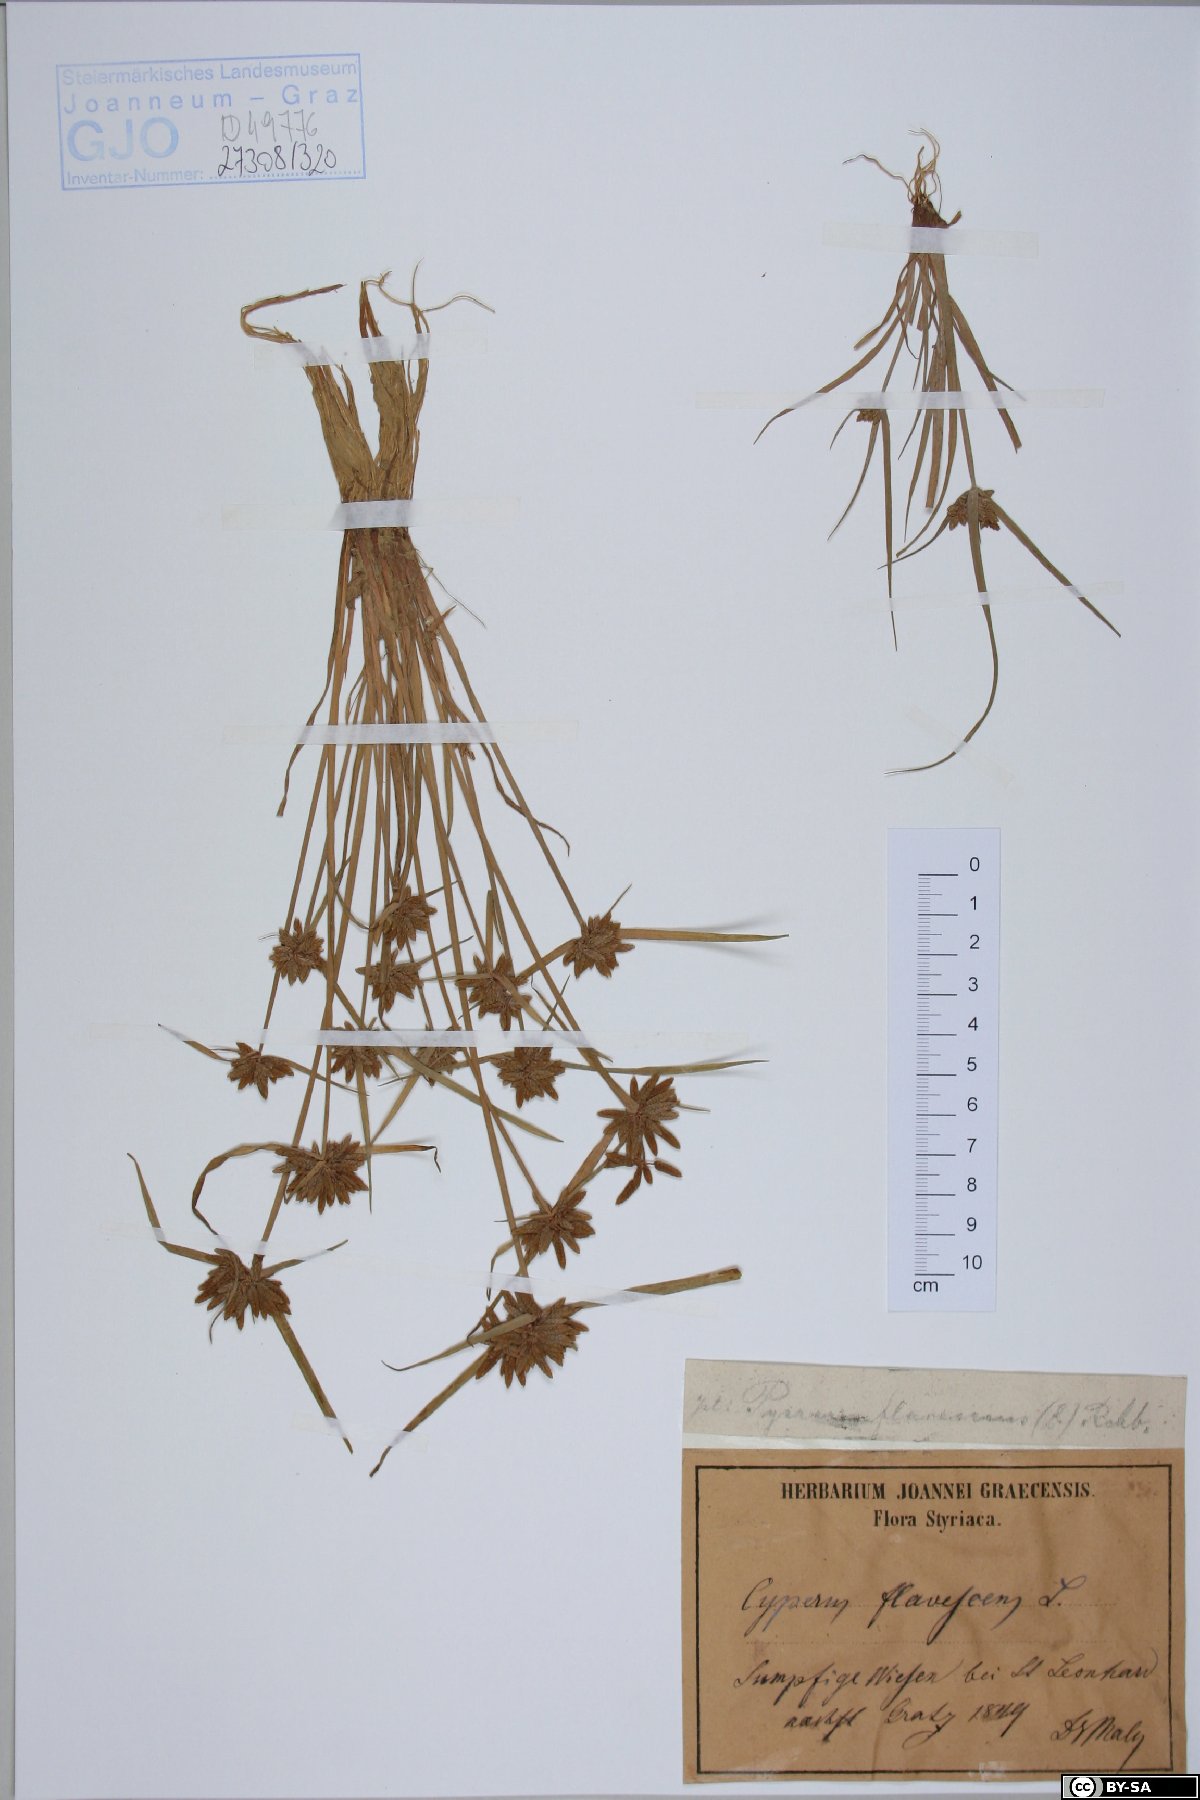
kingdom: Plantae
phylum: Tracheophyta
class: Liliopsida
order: Poales
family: Cyperaceae
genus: Cyperus
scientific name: Cyperus flavescens
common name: Yellow galingale
